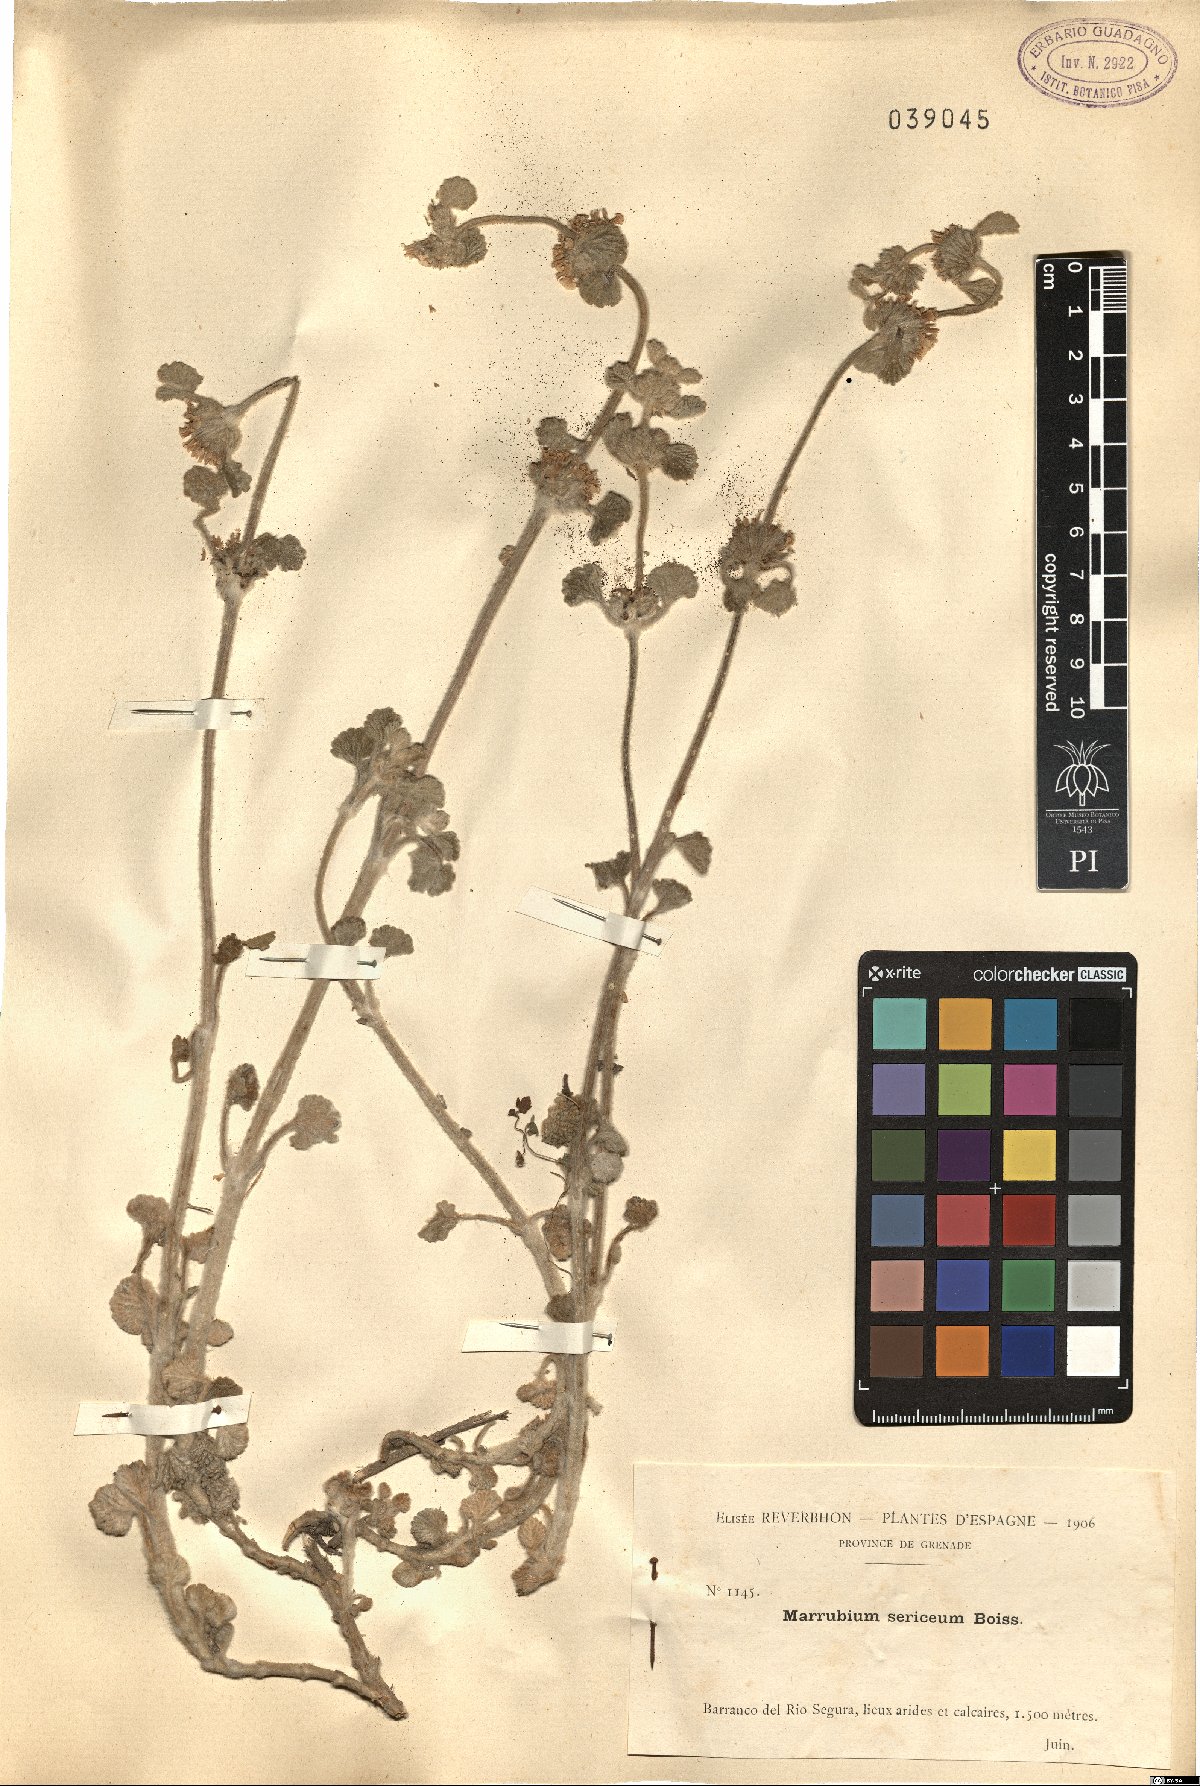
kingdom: Plantae
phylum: Tracheophyta
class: Magnoliopsida
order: Lamiales
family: Lamiaceae
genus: Marrubium
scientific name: Marrubium supinum
